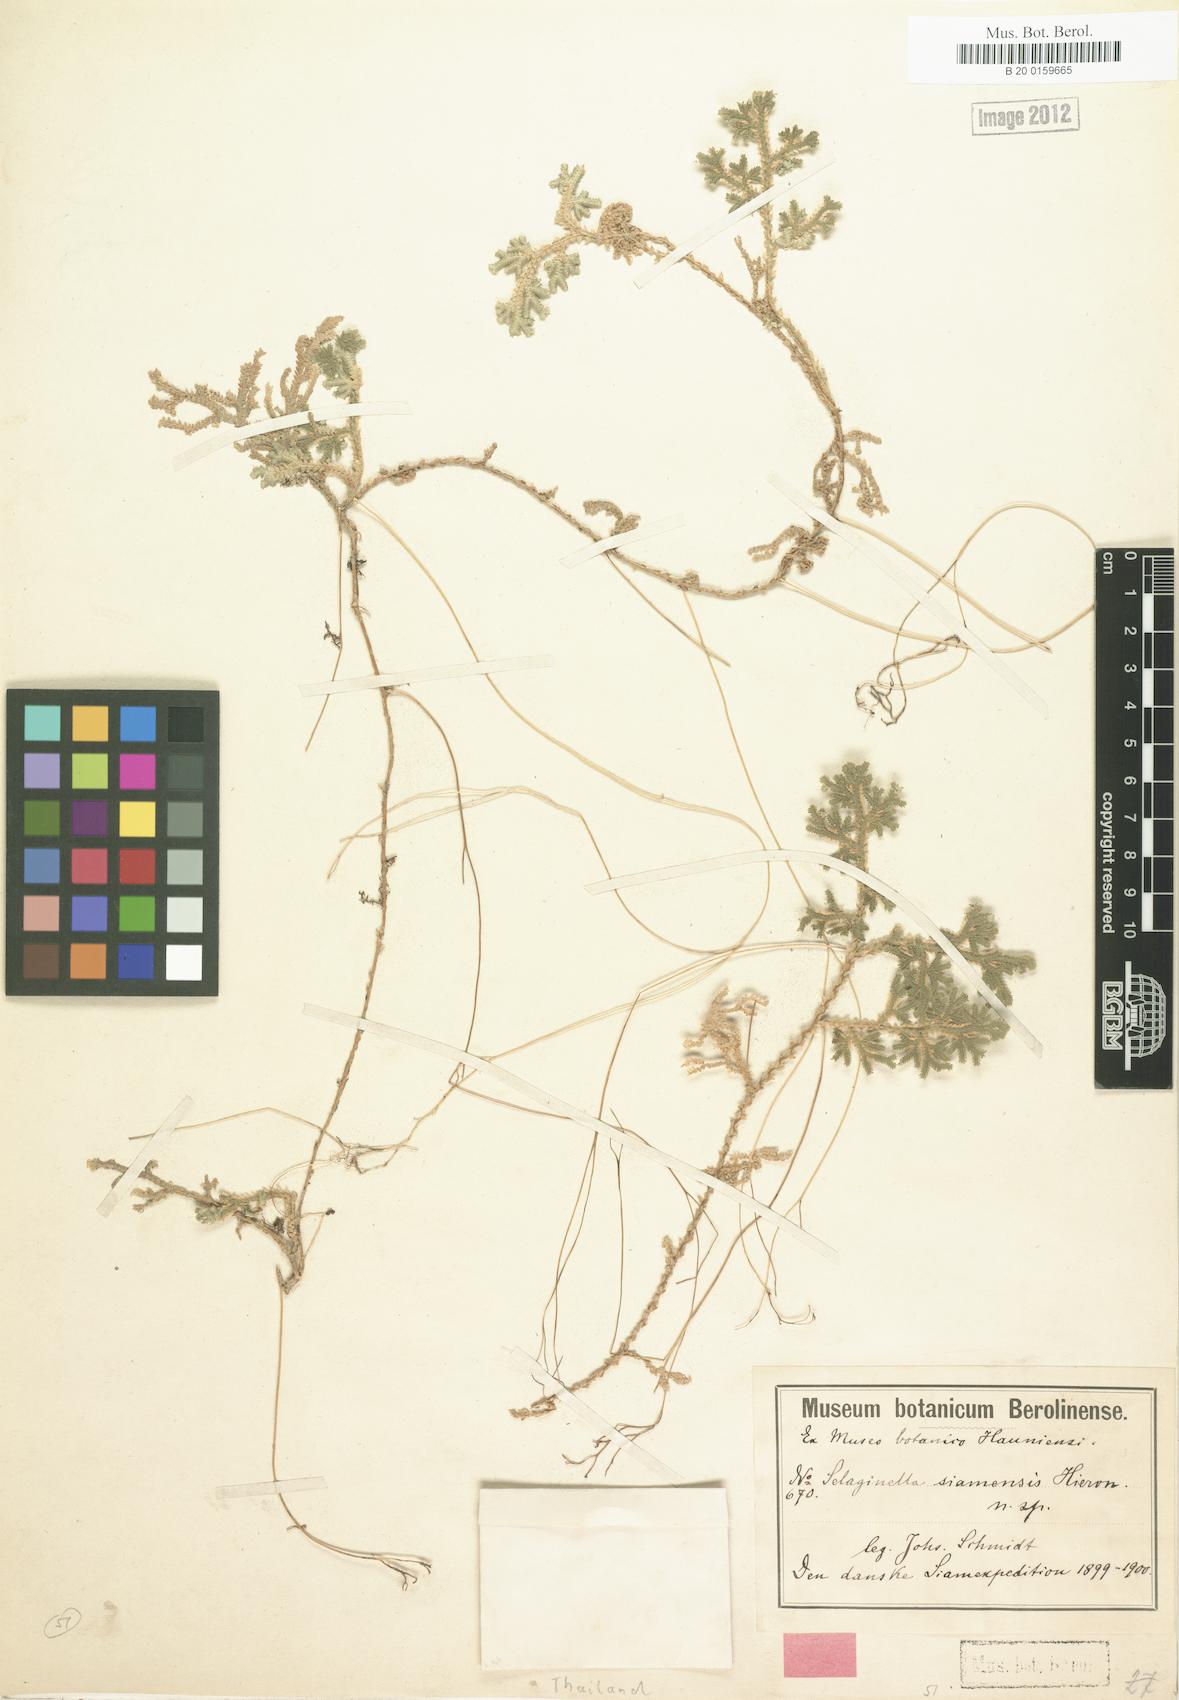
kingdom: Plantae
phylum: Tracheophyta
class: Lycopodiopsida
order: Selaginellales
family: Selaginellaceae
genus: Selaginella
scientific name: Selaginella siamensis
